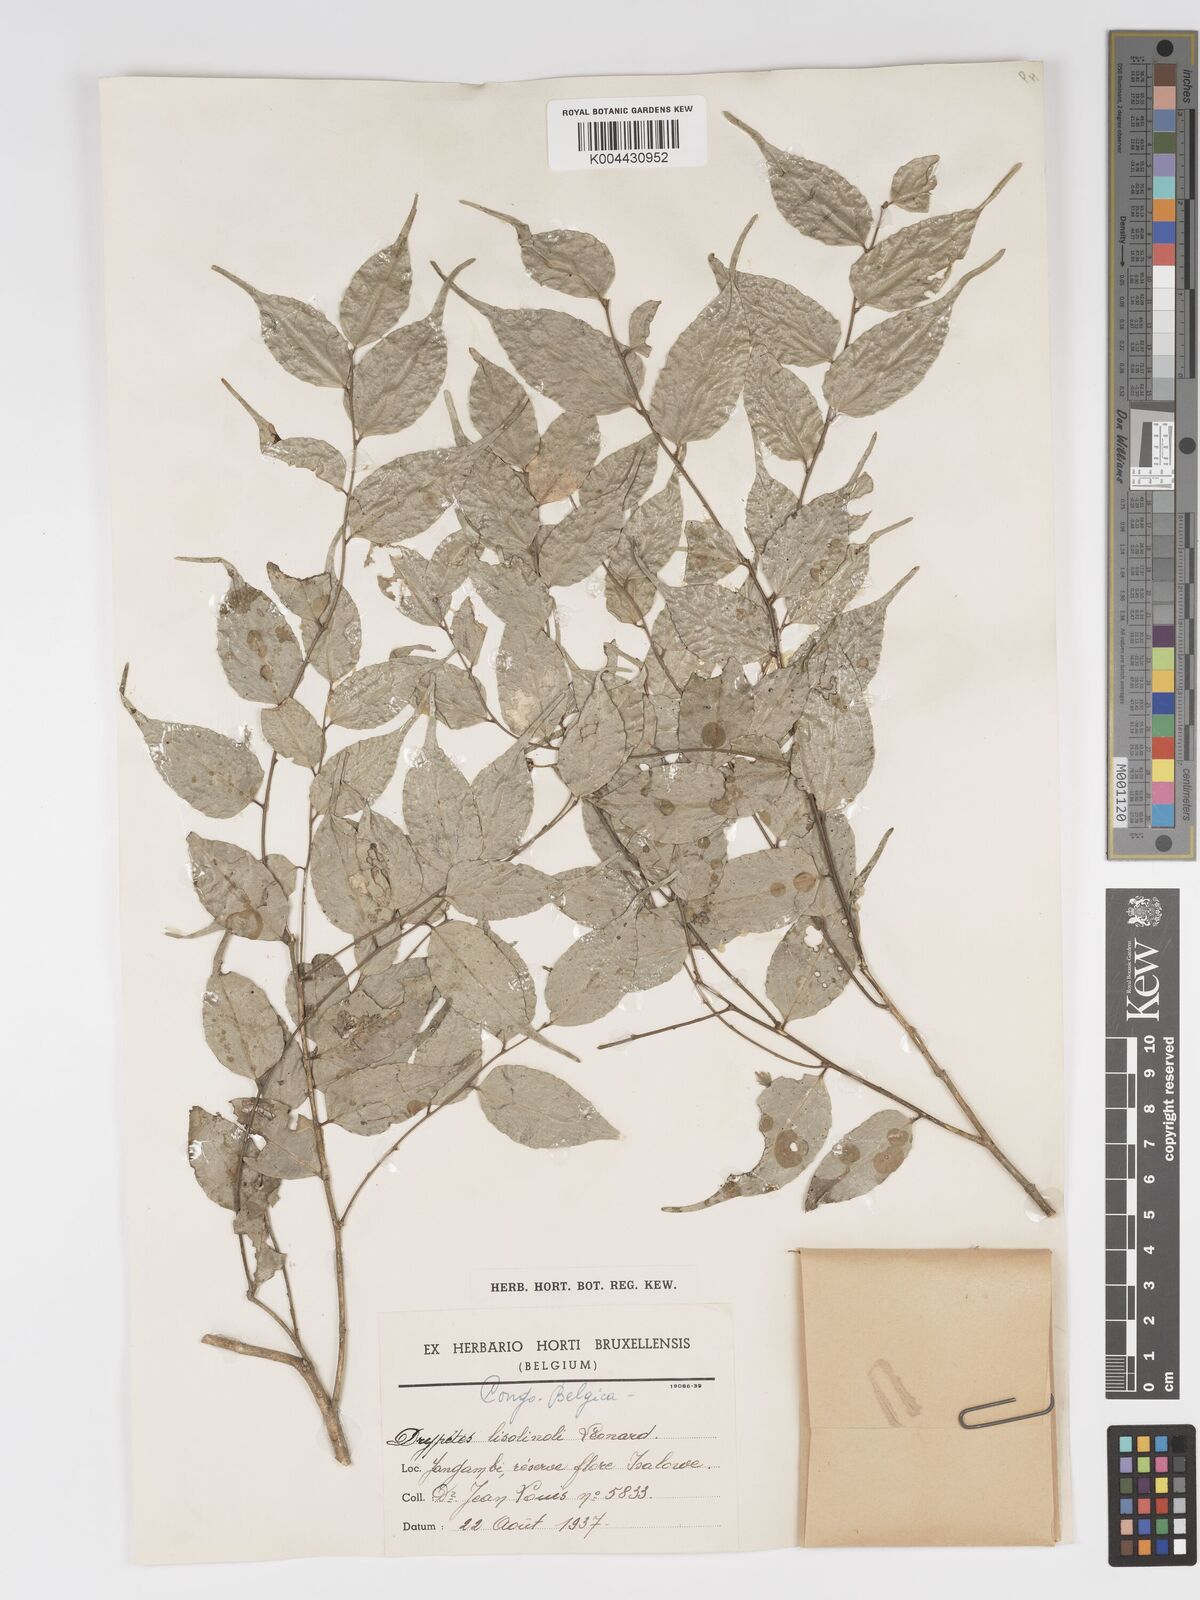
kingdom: Plantae
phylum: Tracheophyta
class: Magnoliopsida
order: Malpighiales
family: Putranjivaceae
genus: Drypetes
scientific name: Drypetes
